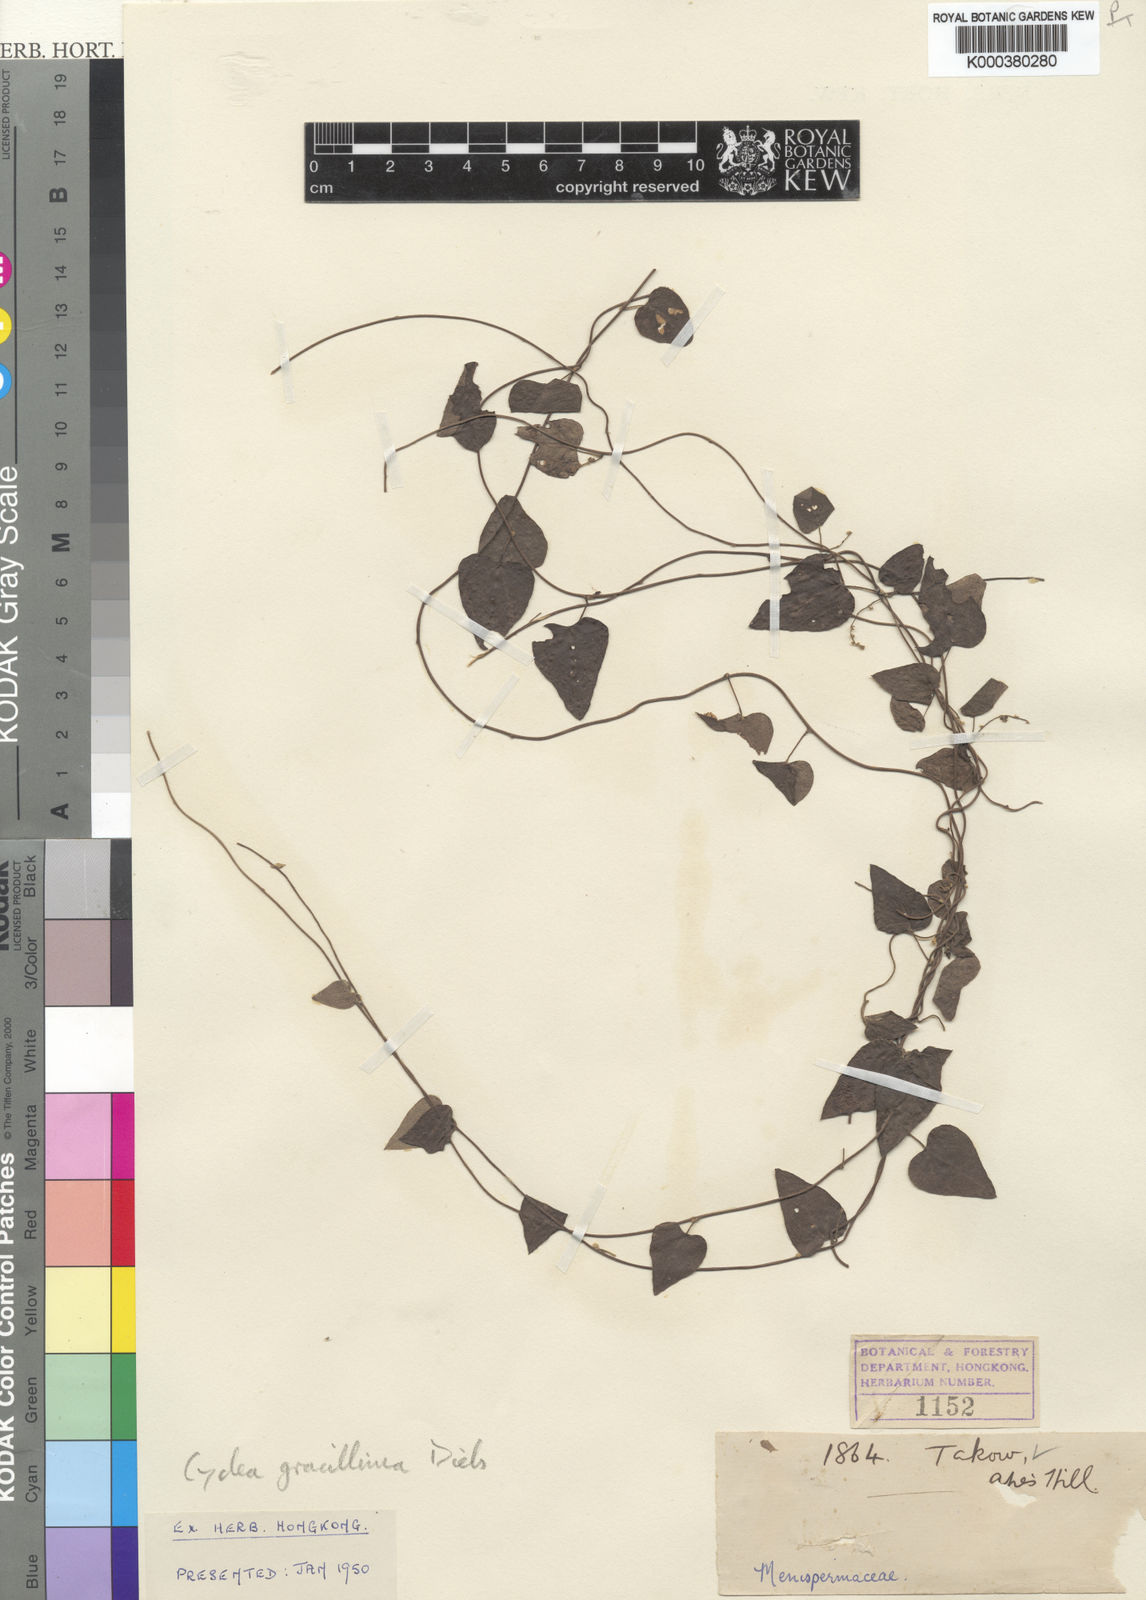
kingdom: Plantae
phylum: Tracheophyta
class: Magnoliopsida
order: Ranunculales
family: Menispermaceae
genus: Cyclea
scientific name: Cyclea gracillima
